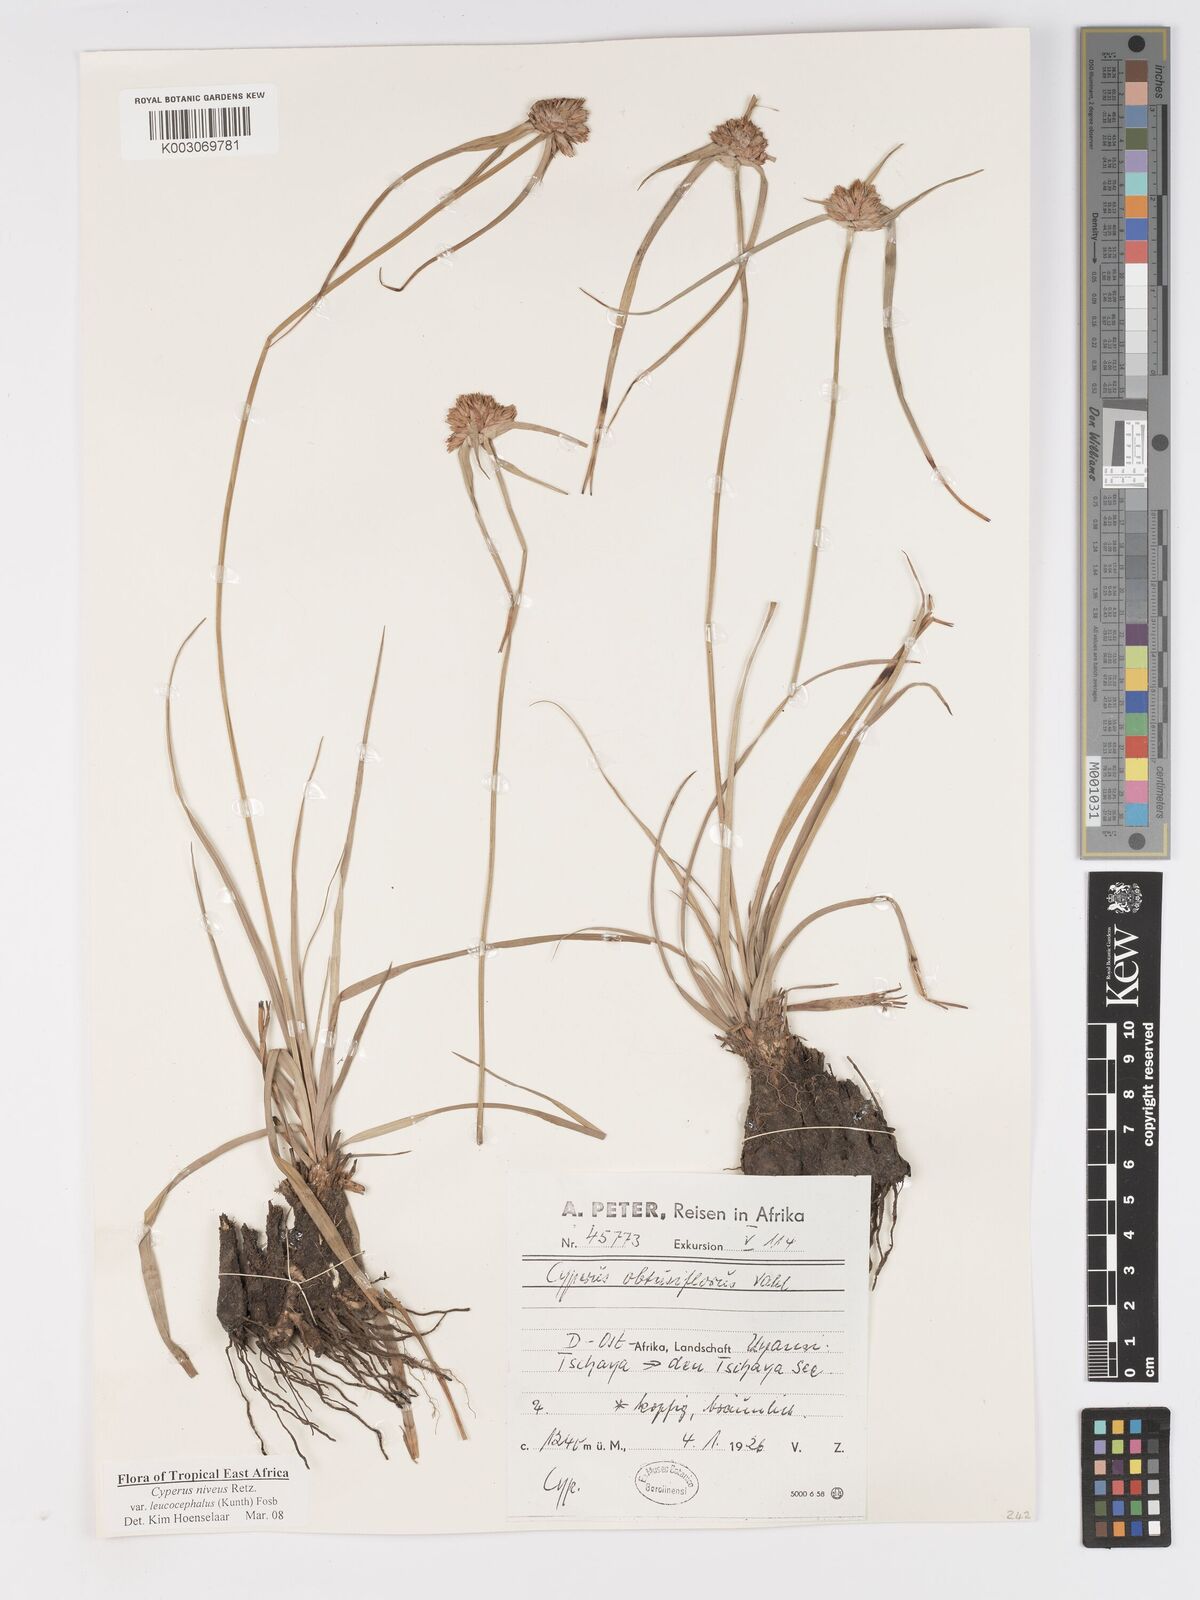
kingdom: Plantae
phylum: Tracheophyta
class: Liliopsida
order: Poales
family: Cyperaceae
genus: Cyperus
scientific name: Cyperus niveus
